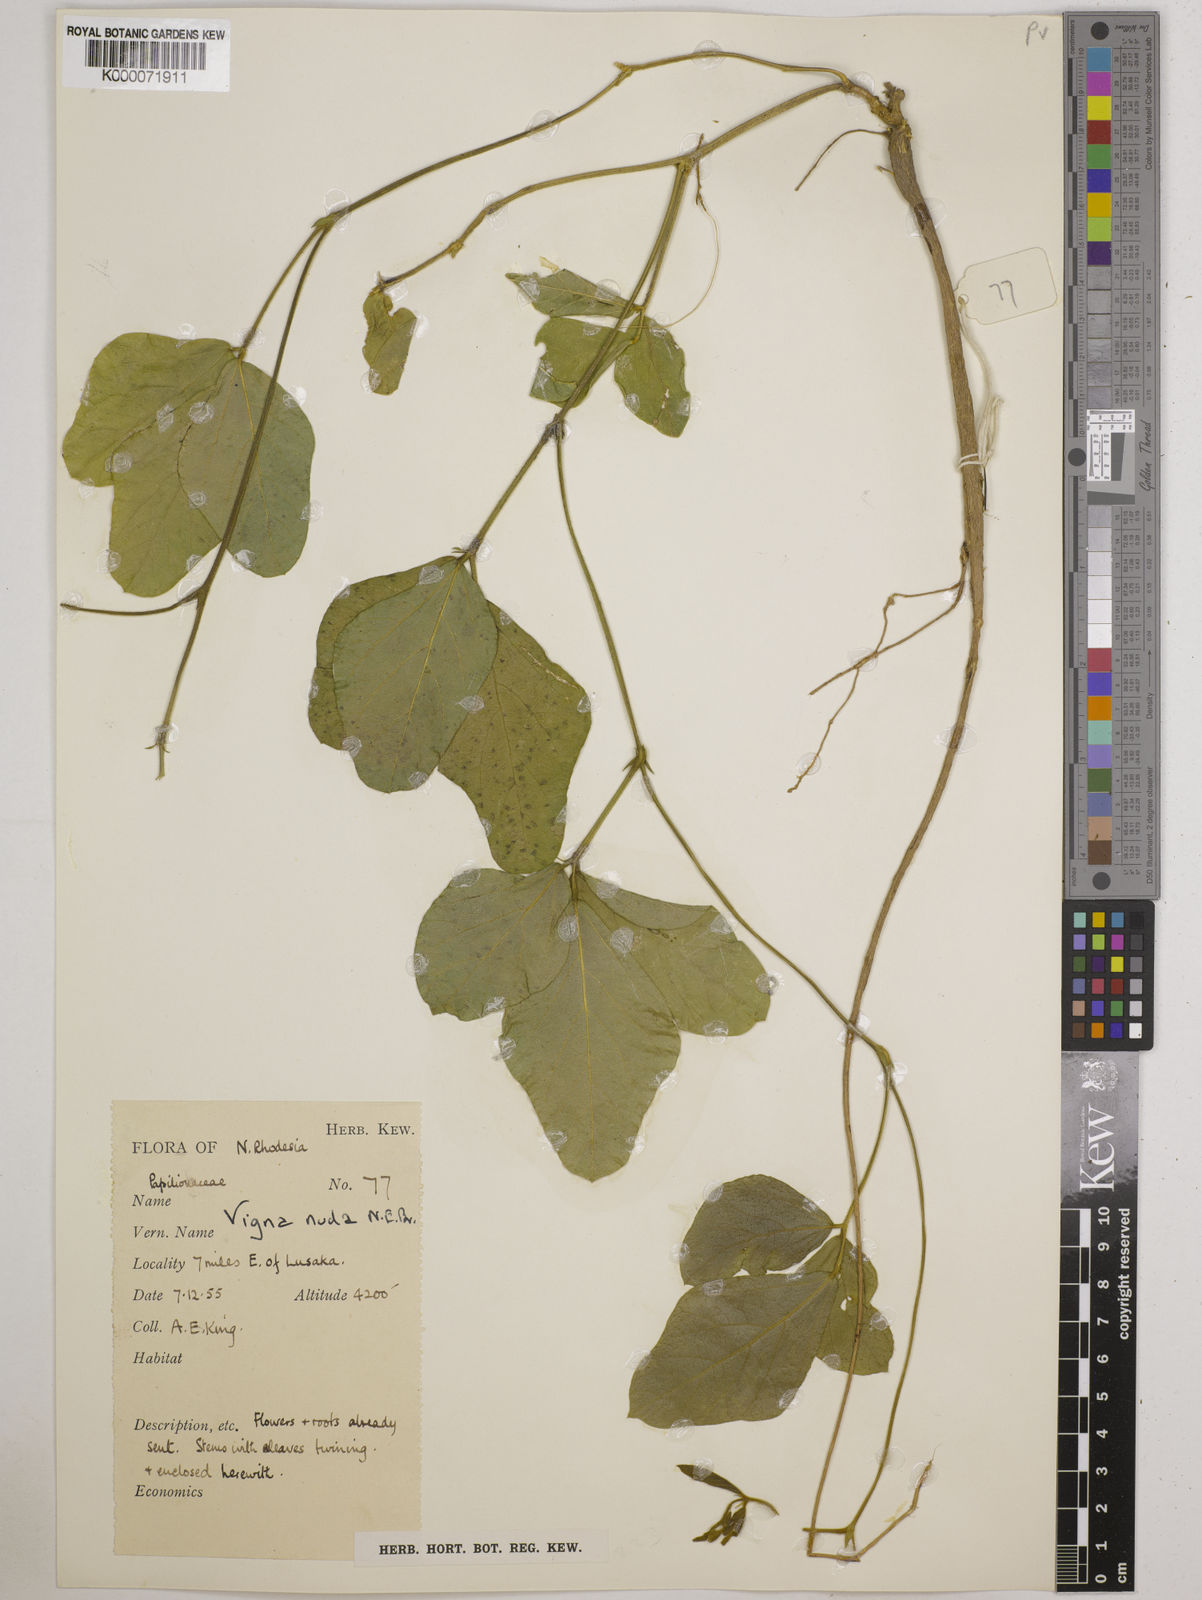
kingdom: Plantae
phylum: Tracheophyta
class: Magnoliopsida
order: Fabales
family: Fabaceae
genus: Vigna
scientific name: Vigna antunesii
